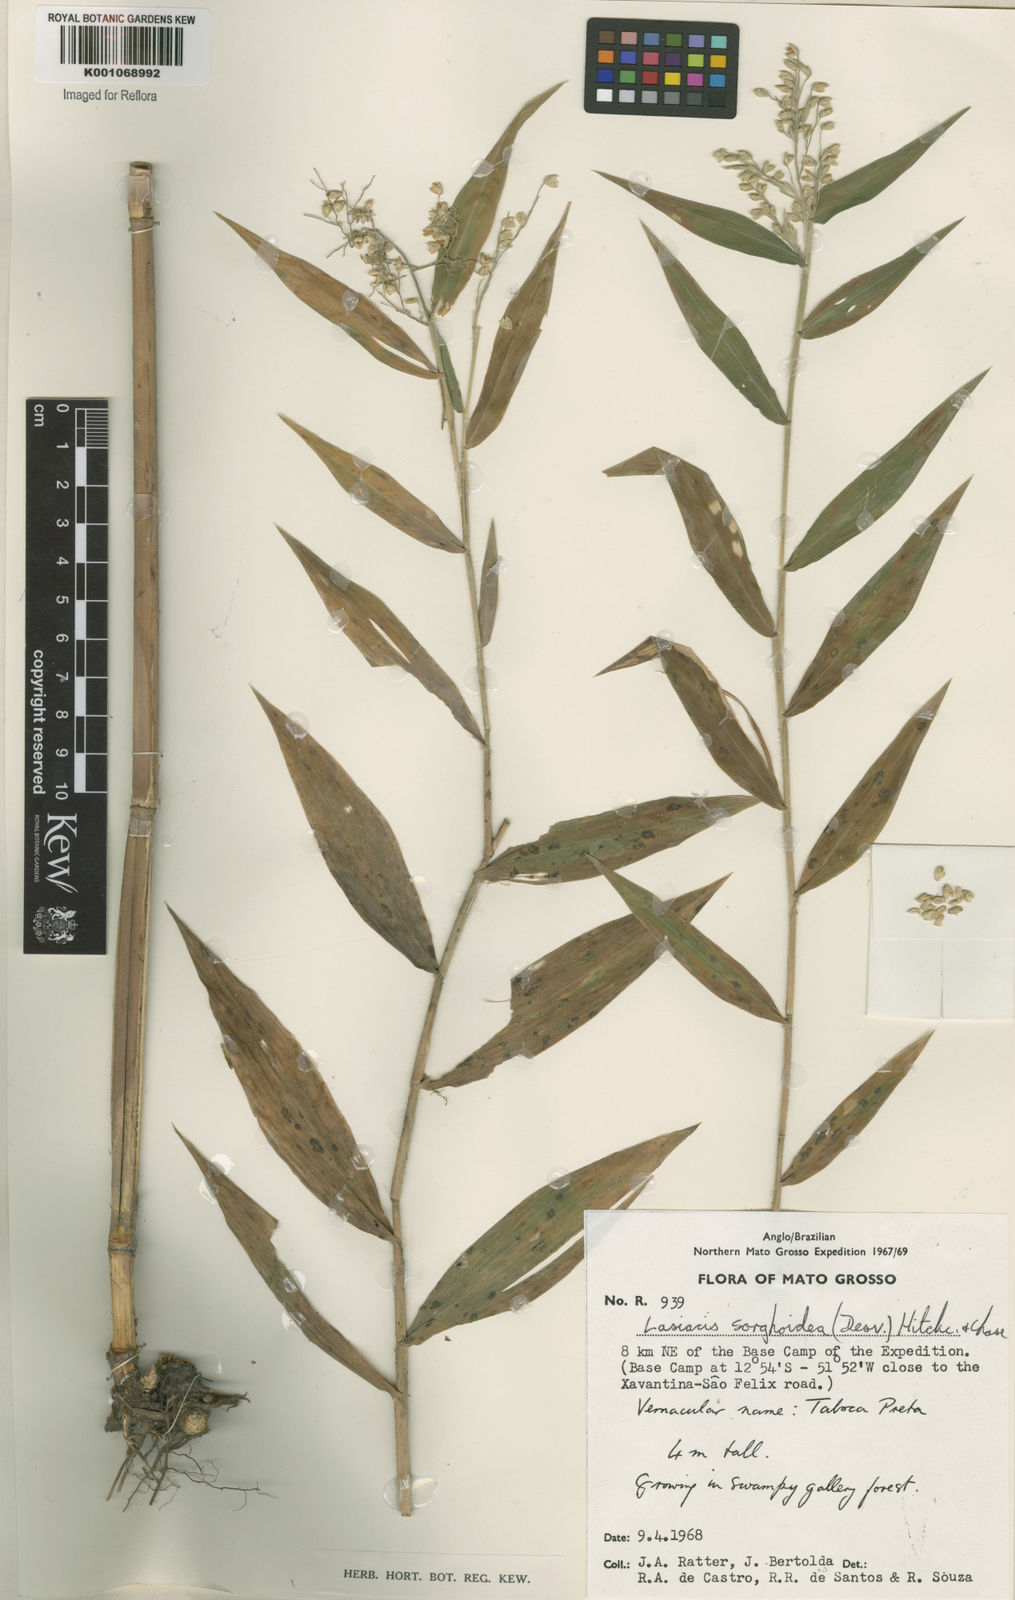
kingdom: Plantae
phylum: Tracheophyta
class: Liliopsida
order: Poales
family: Poaceae
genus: Lasiacis
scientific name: Lasiacis maculata
